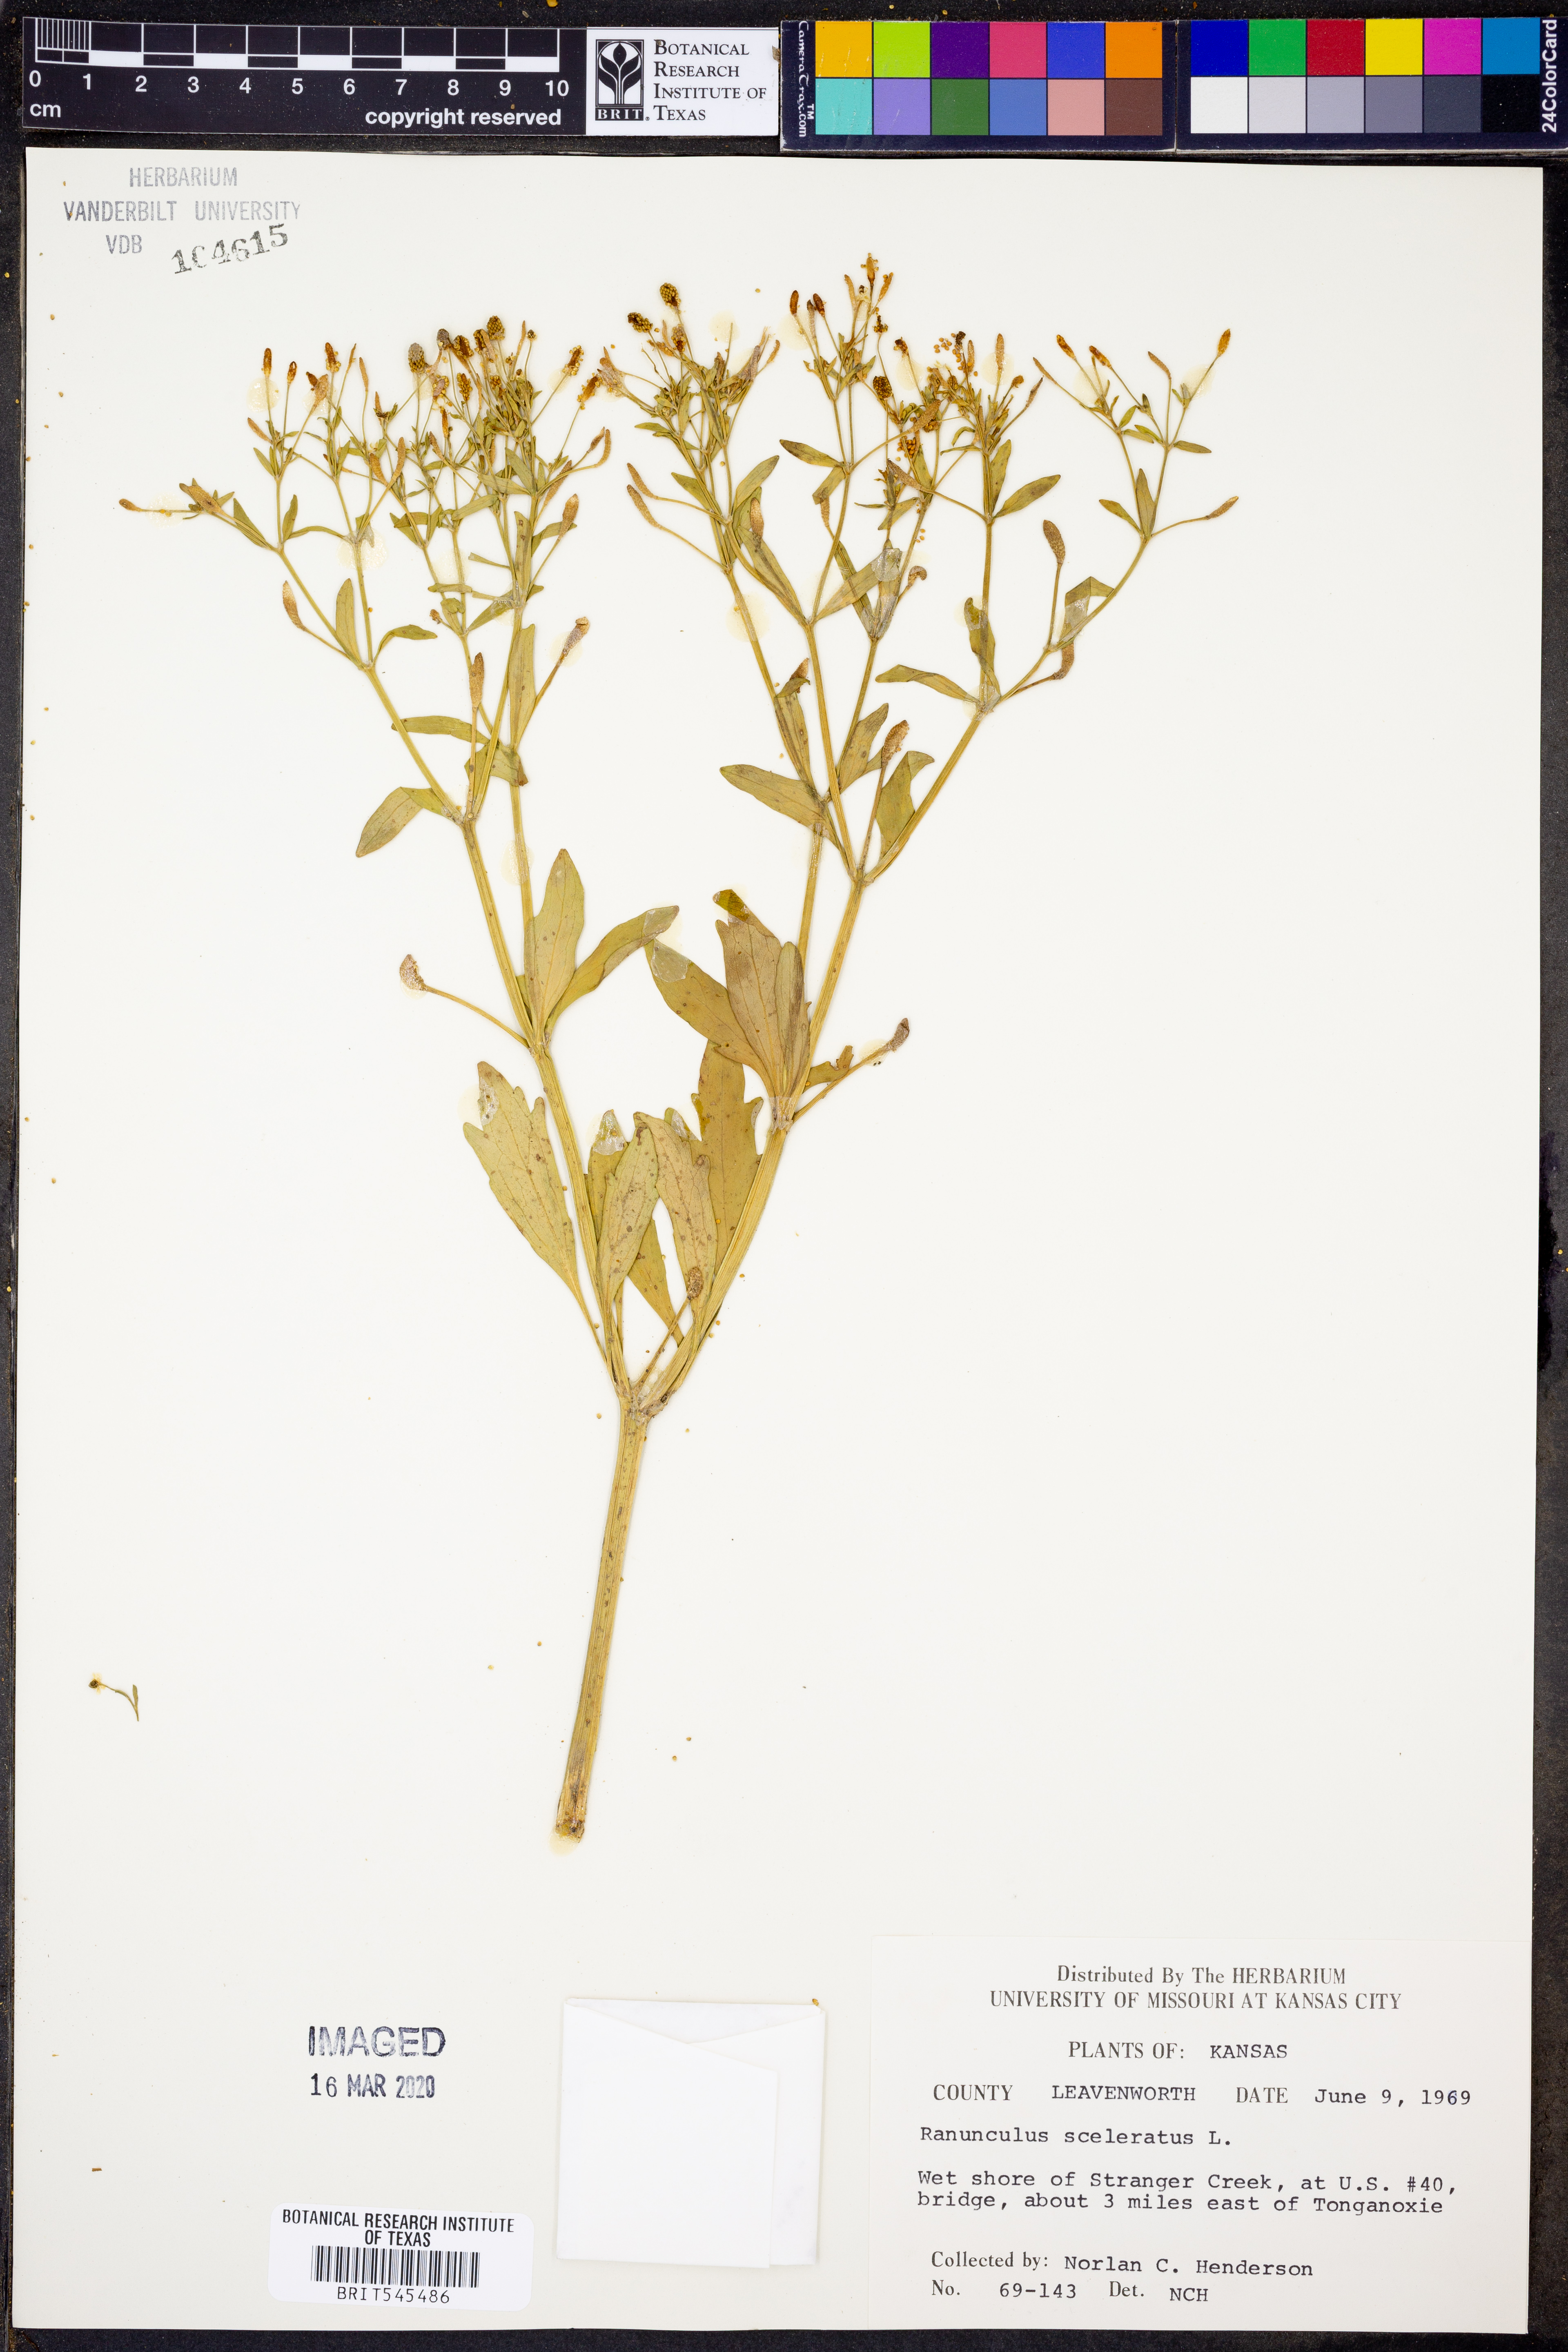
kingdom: Plantae
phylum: Tracheophyta
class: Magnoliopsida
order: Ranunculales
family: Ranunculaceae
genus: Ranunculus
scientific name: Ranunculus sceleratus
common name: Celery-leaved buttercup
